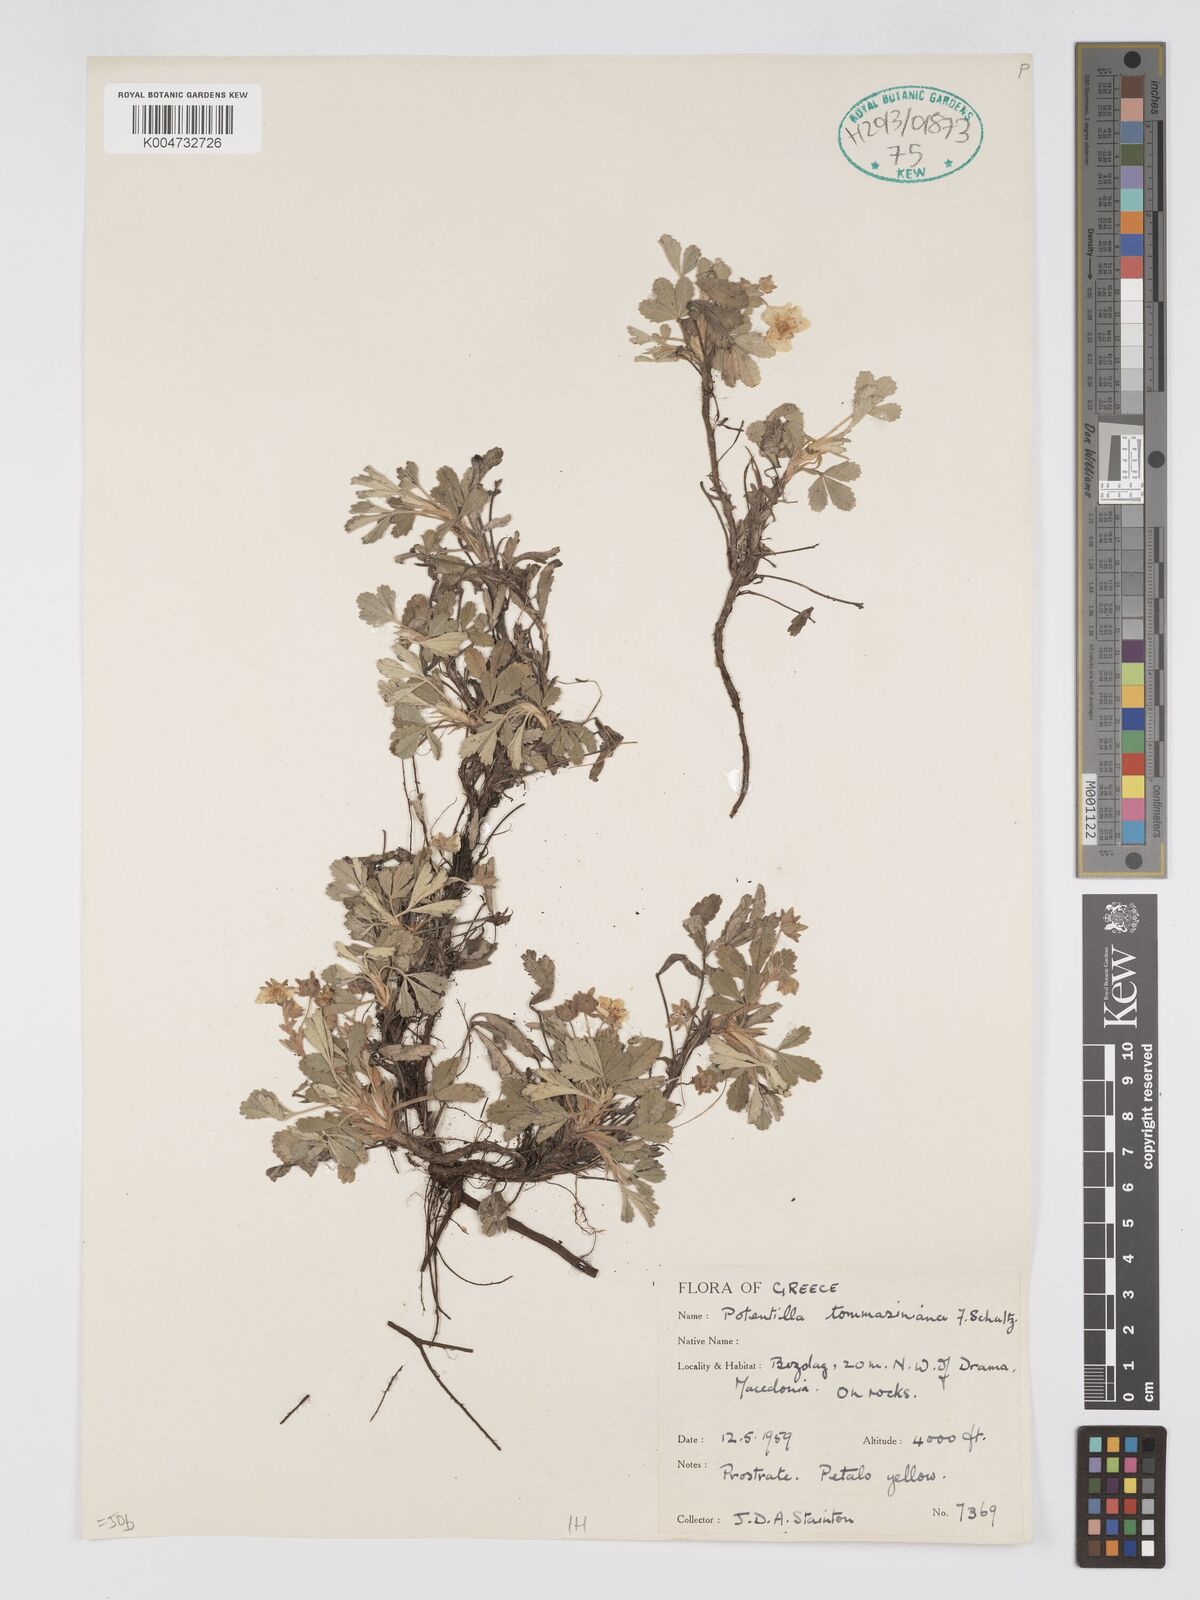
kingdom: Plantae
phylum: Tracheophyta
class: Magnoliopsida
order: Rosales
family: Rosaceae
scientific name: Rosaceae
